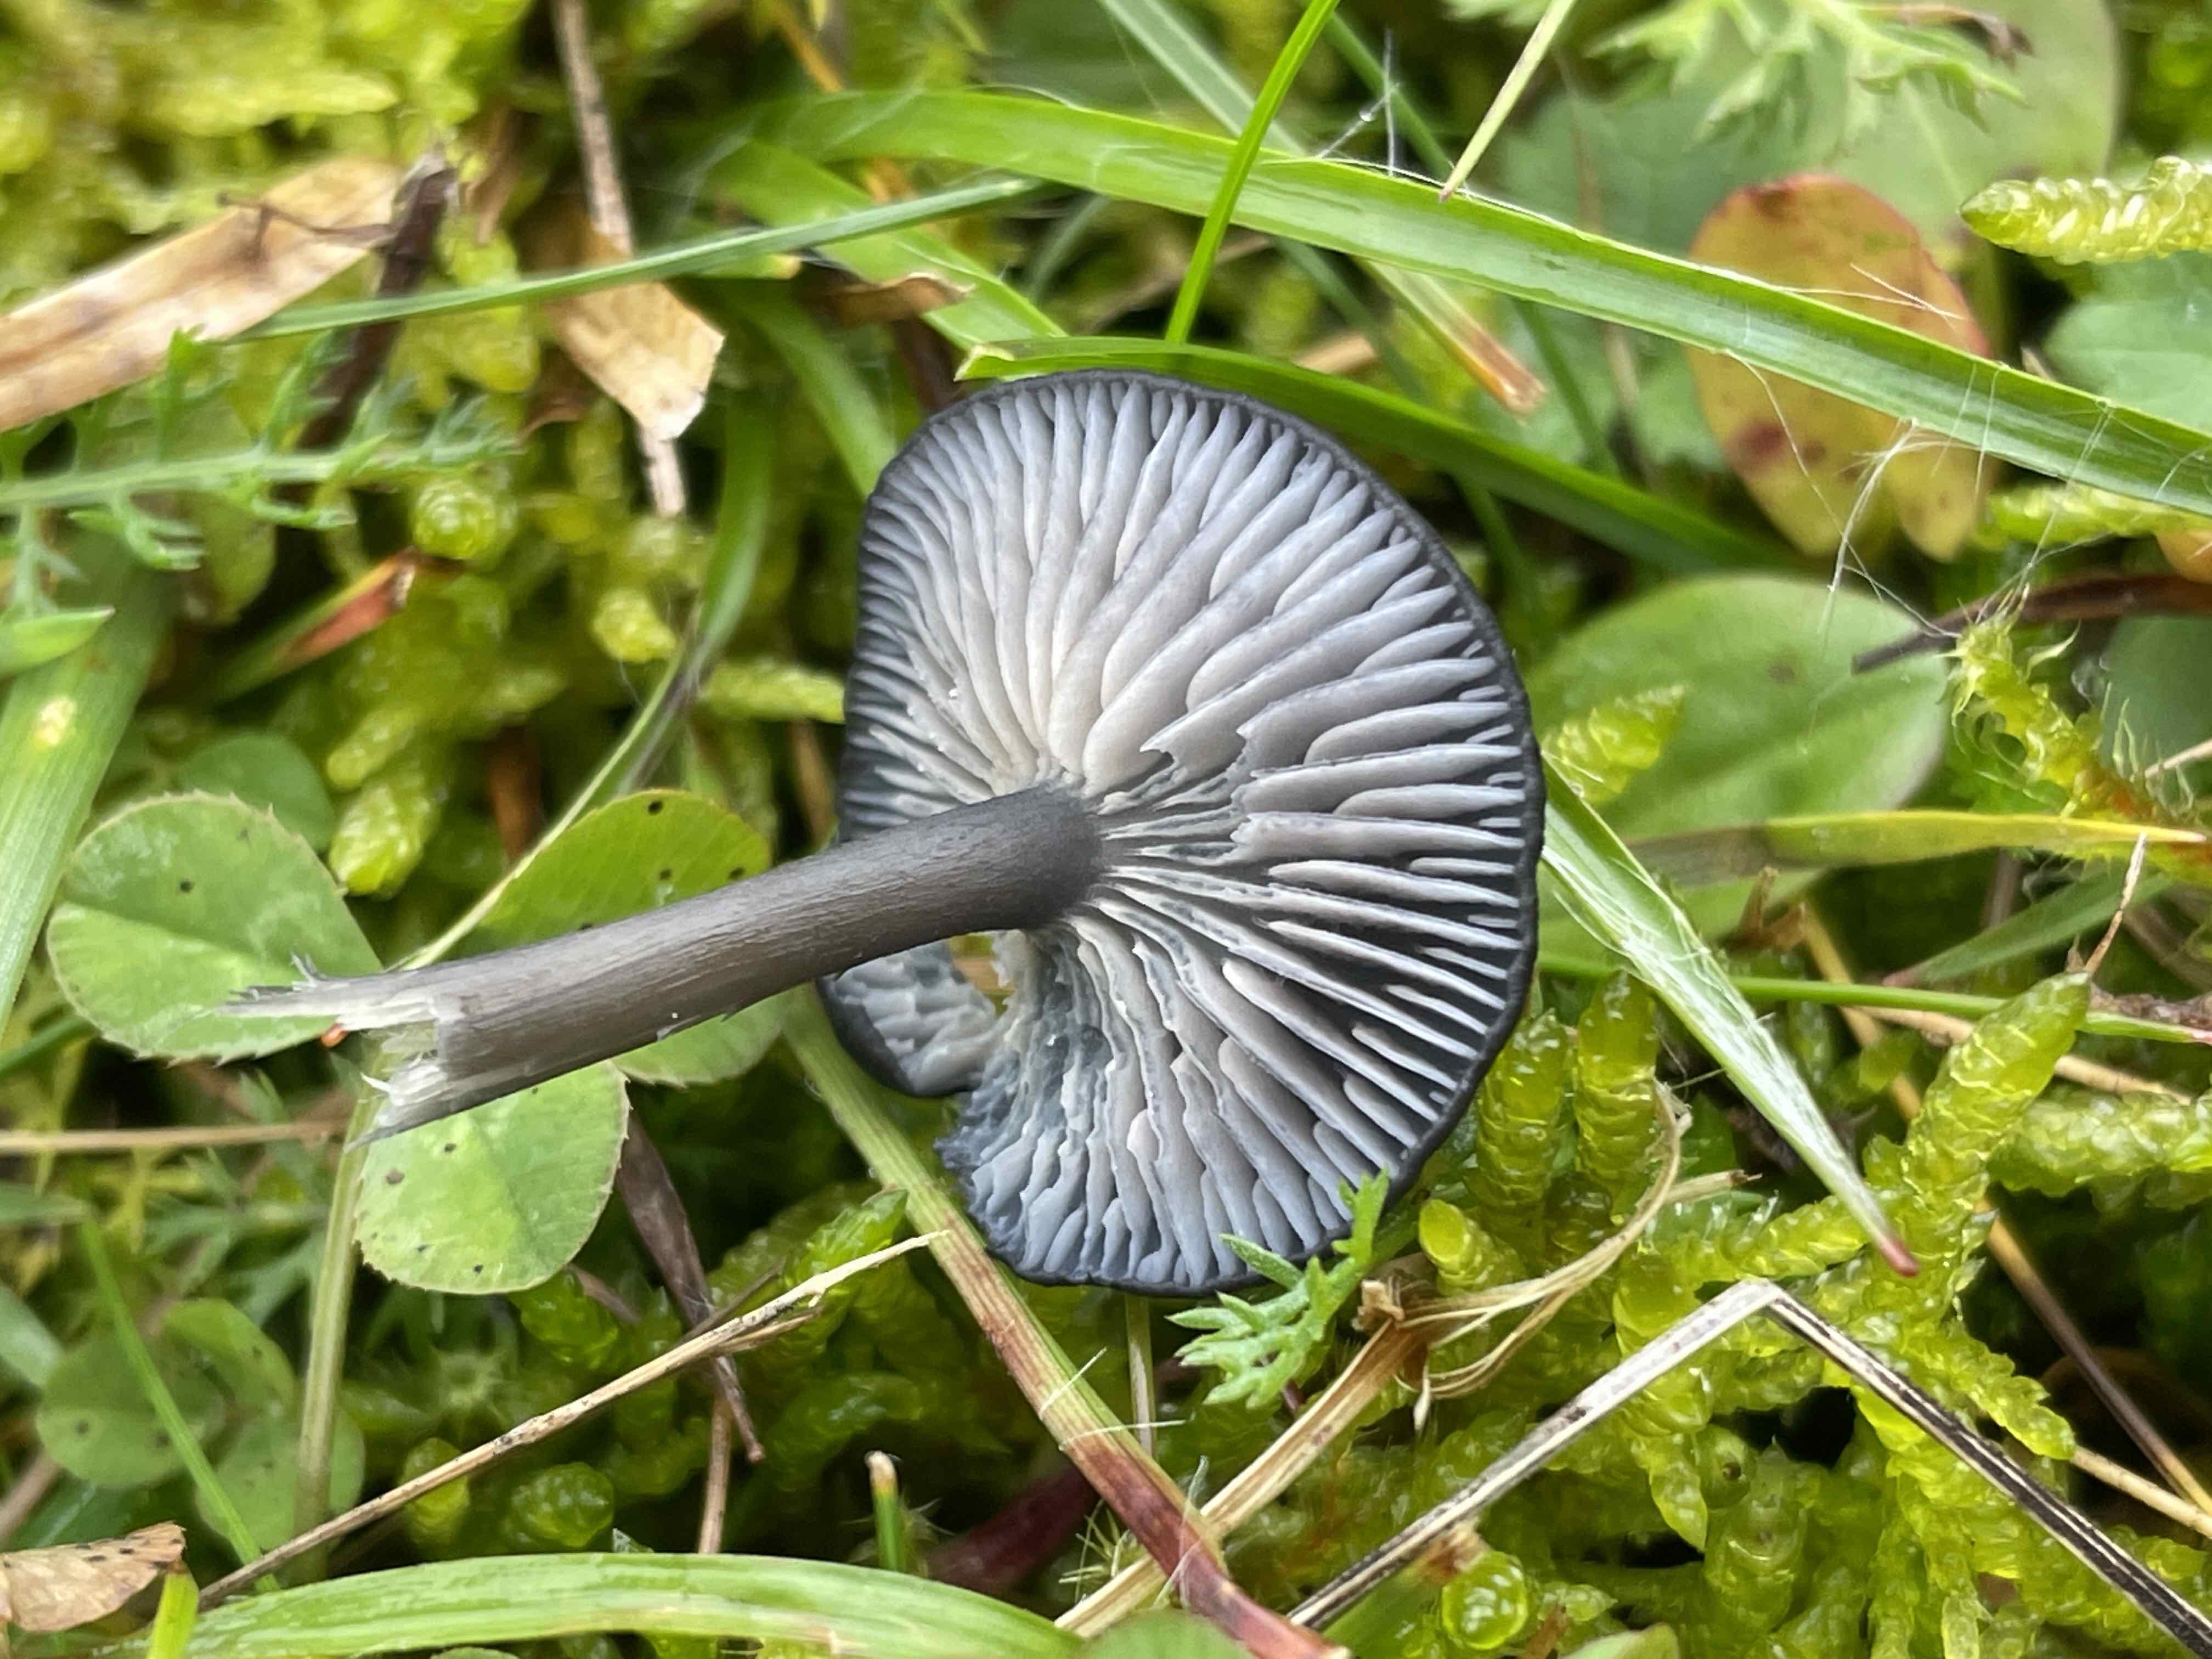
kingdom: Fungi
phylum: Basidiomycota
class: Agaricomycetes
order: Agaricales
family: Entolomataceae
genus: Entoloma
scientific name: Entoloma chalybeum
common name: blåbladet rødblad
